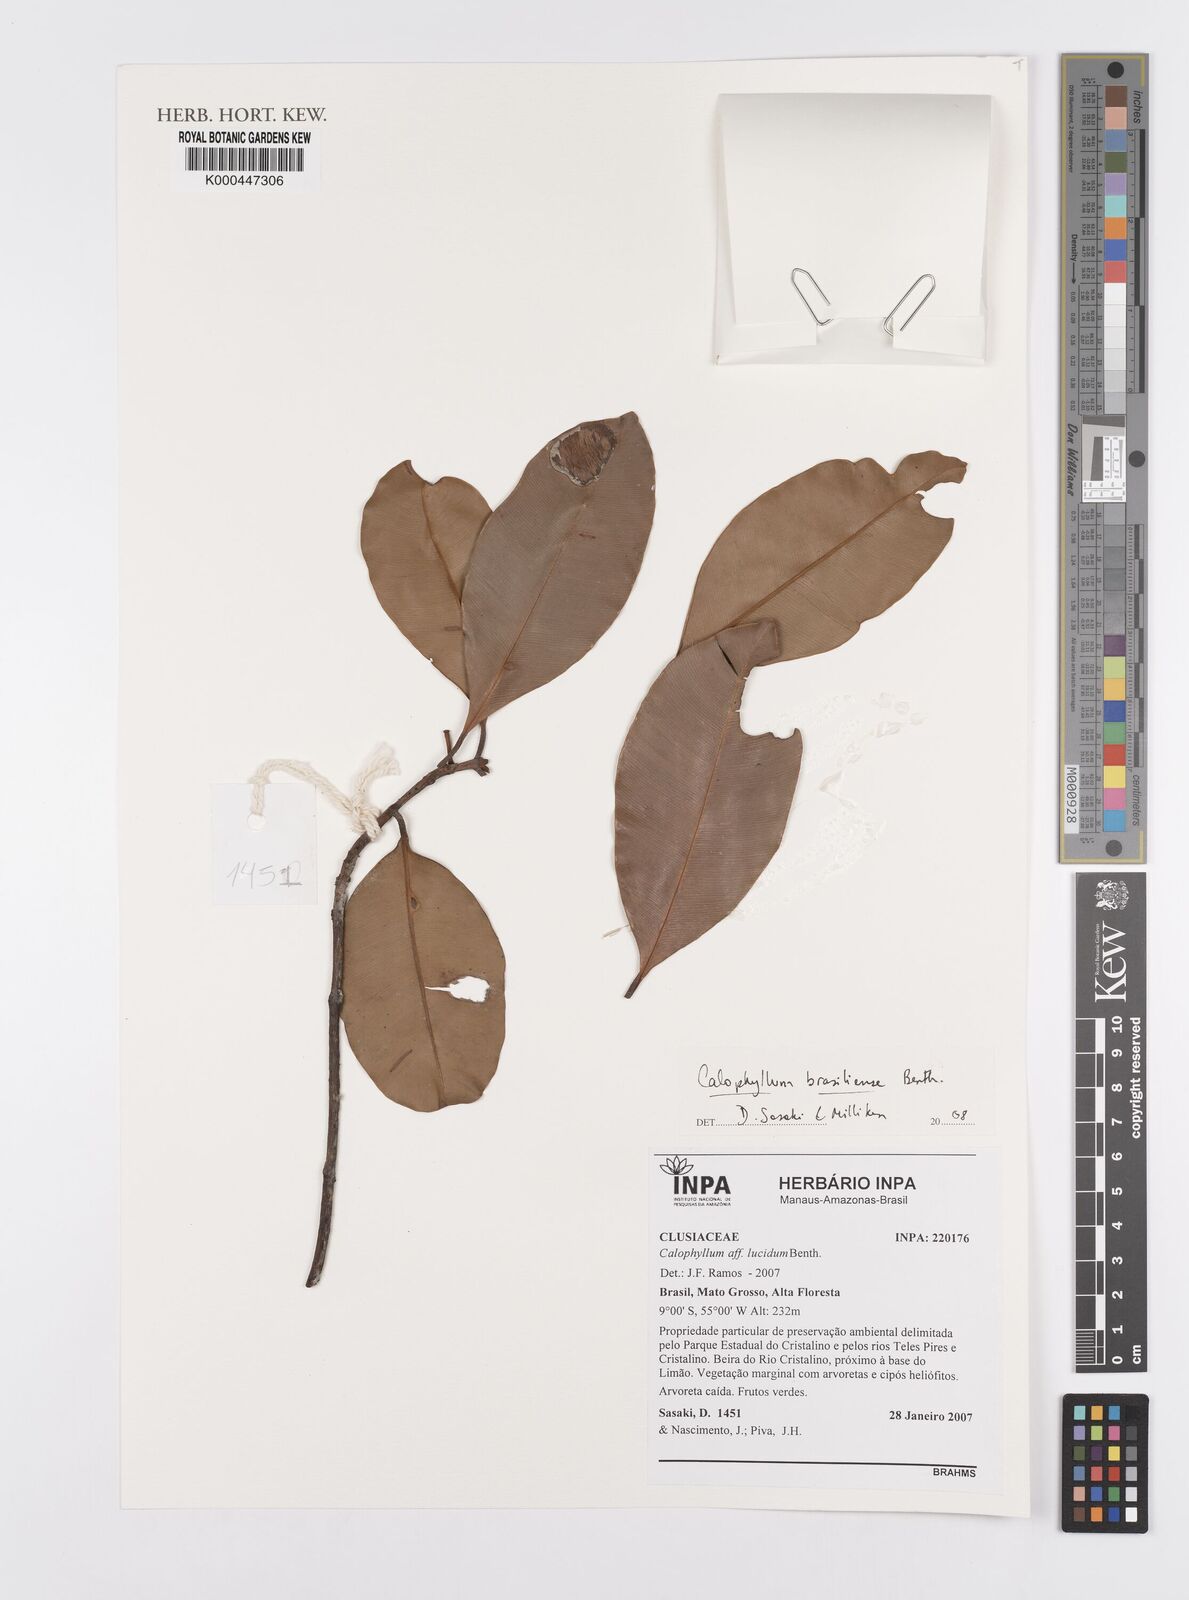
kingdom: Plantae
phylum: Tracheophyta
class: Magnoliopsida
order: Malpighiales
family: Calophyllaceae
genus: Calophyllum
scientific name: Calophyllum brasiliense
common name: Santa maria
